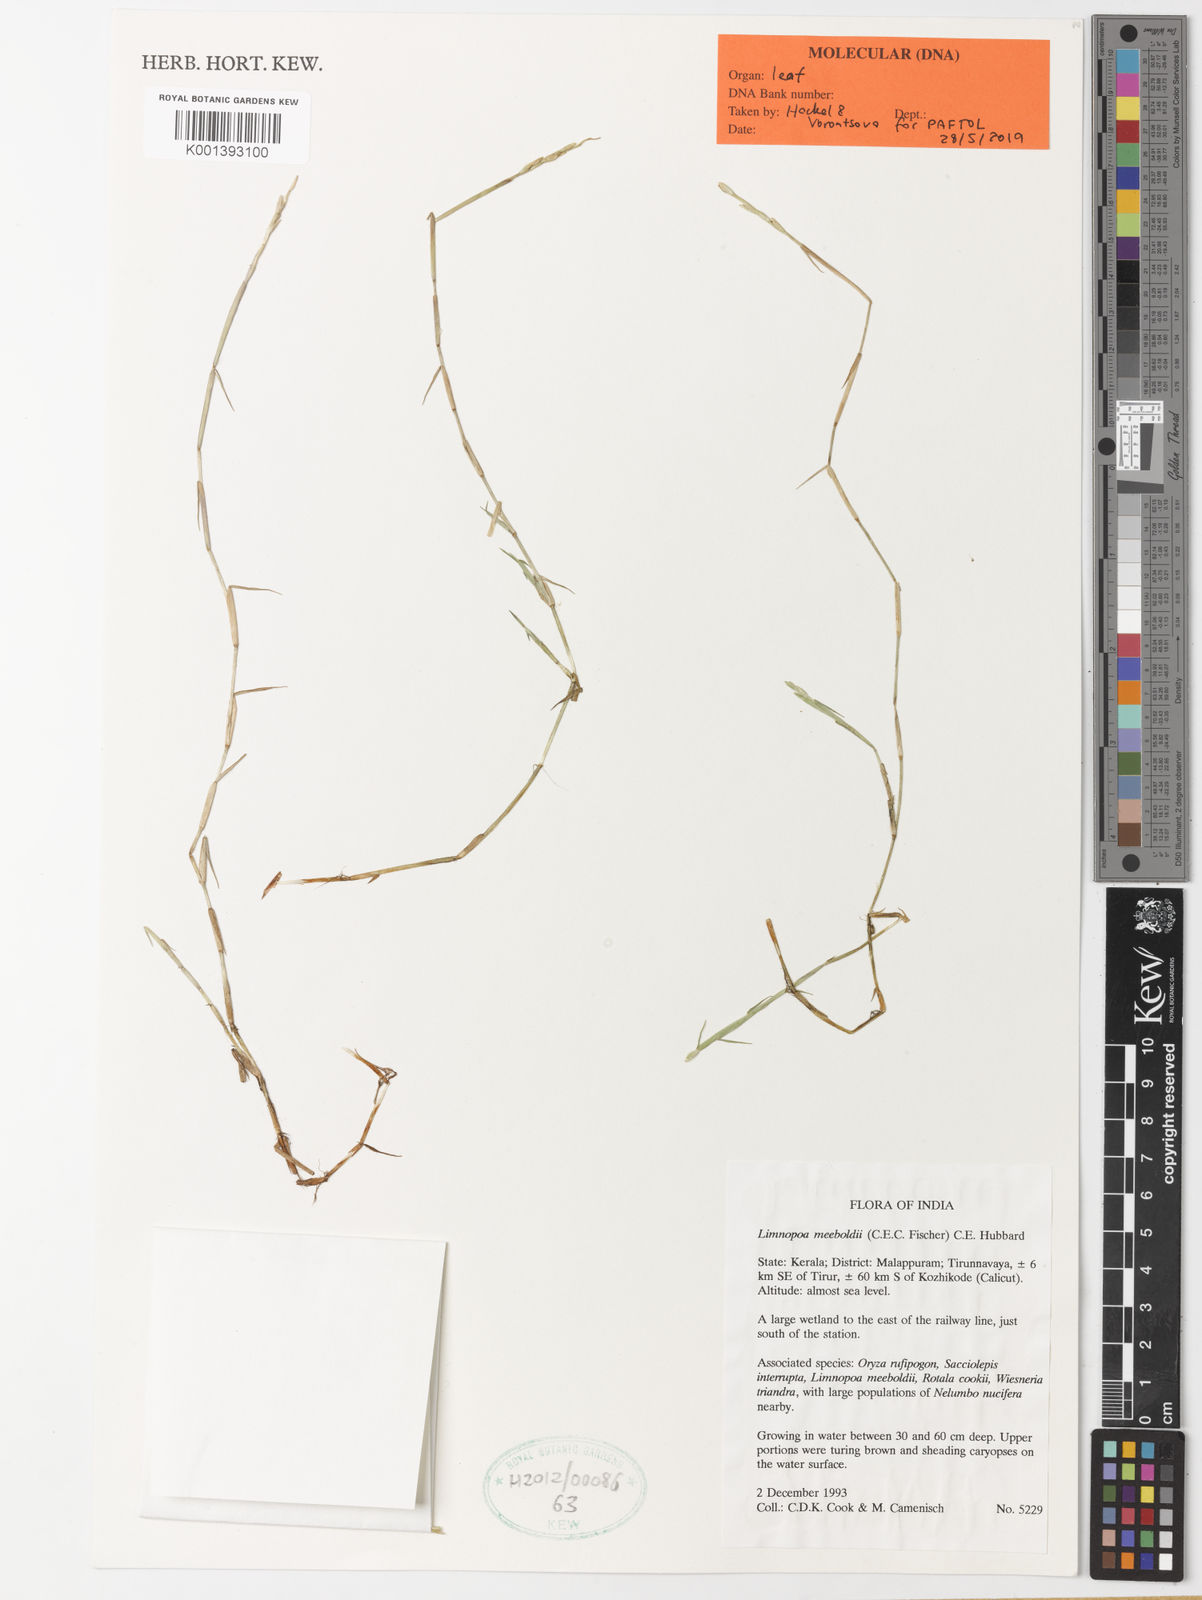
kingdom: Plantae
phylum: Tracheophyta
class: Liliopsida
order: Poales
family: Poaceae
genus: Limnopoa
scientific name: Limnopoa meeboldii
